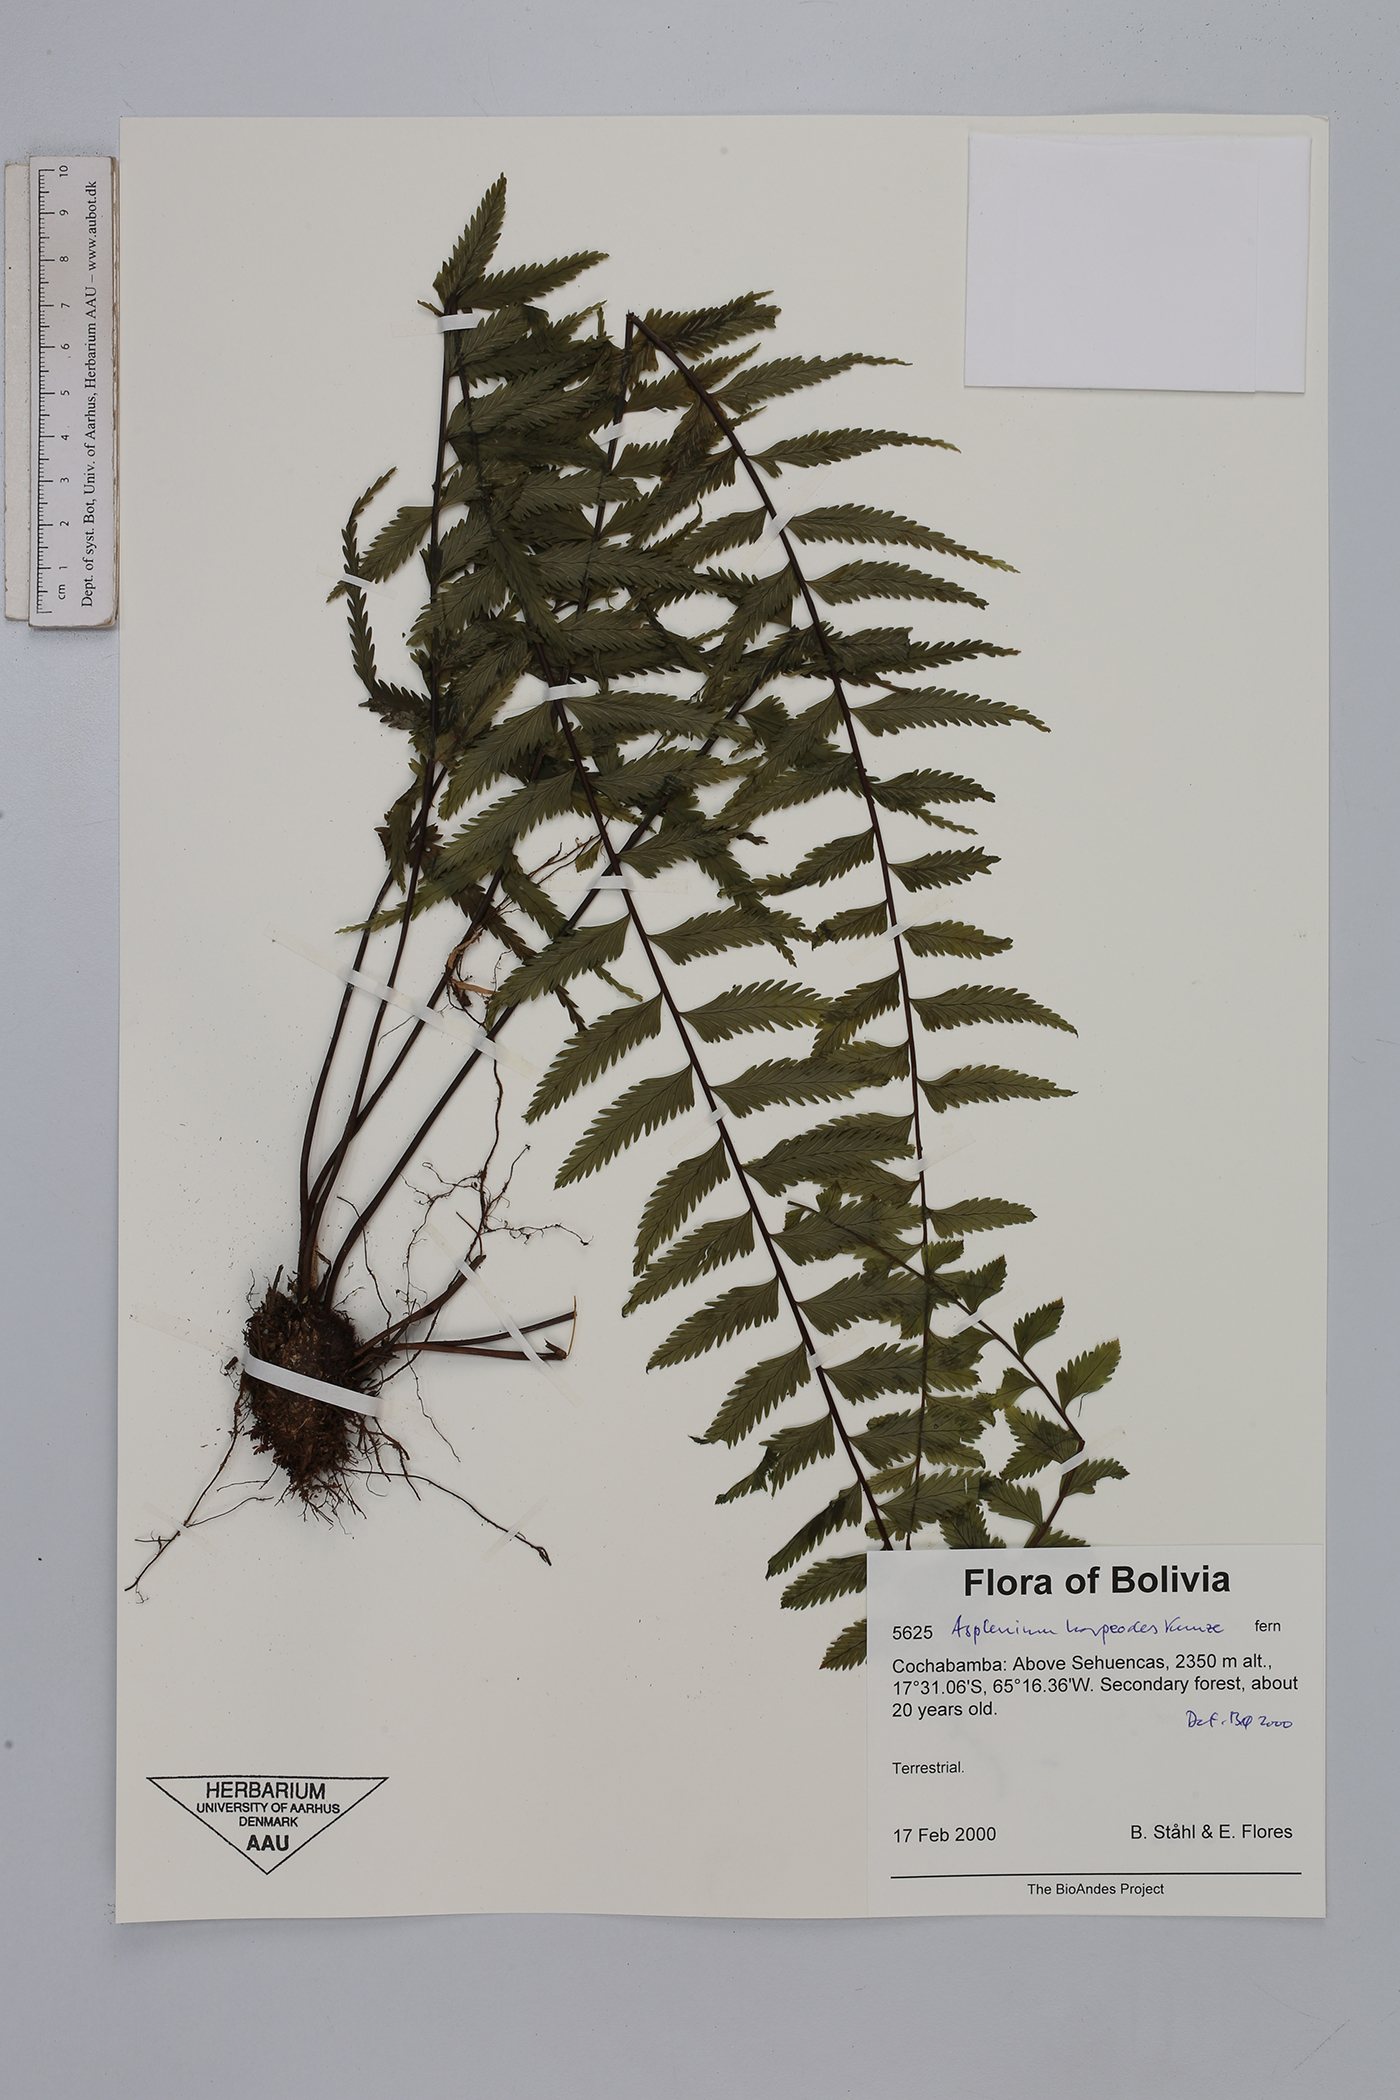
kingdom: Plantae
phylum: Tracheophyta
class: Polypodiopsida
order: Polypodiales
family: Aspleniaceae
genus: Asplenium
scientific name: Asplenium harpeodes
